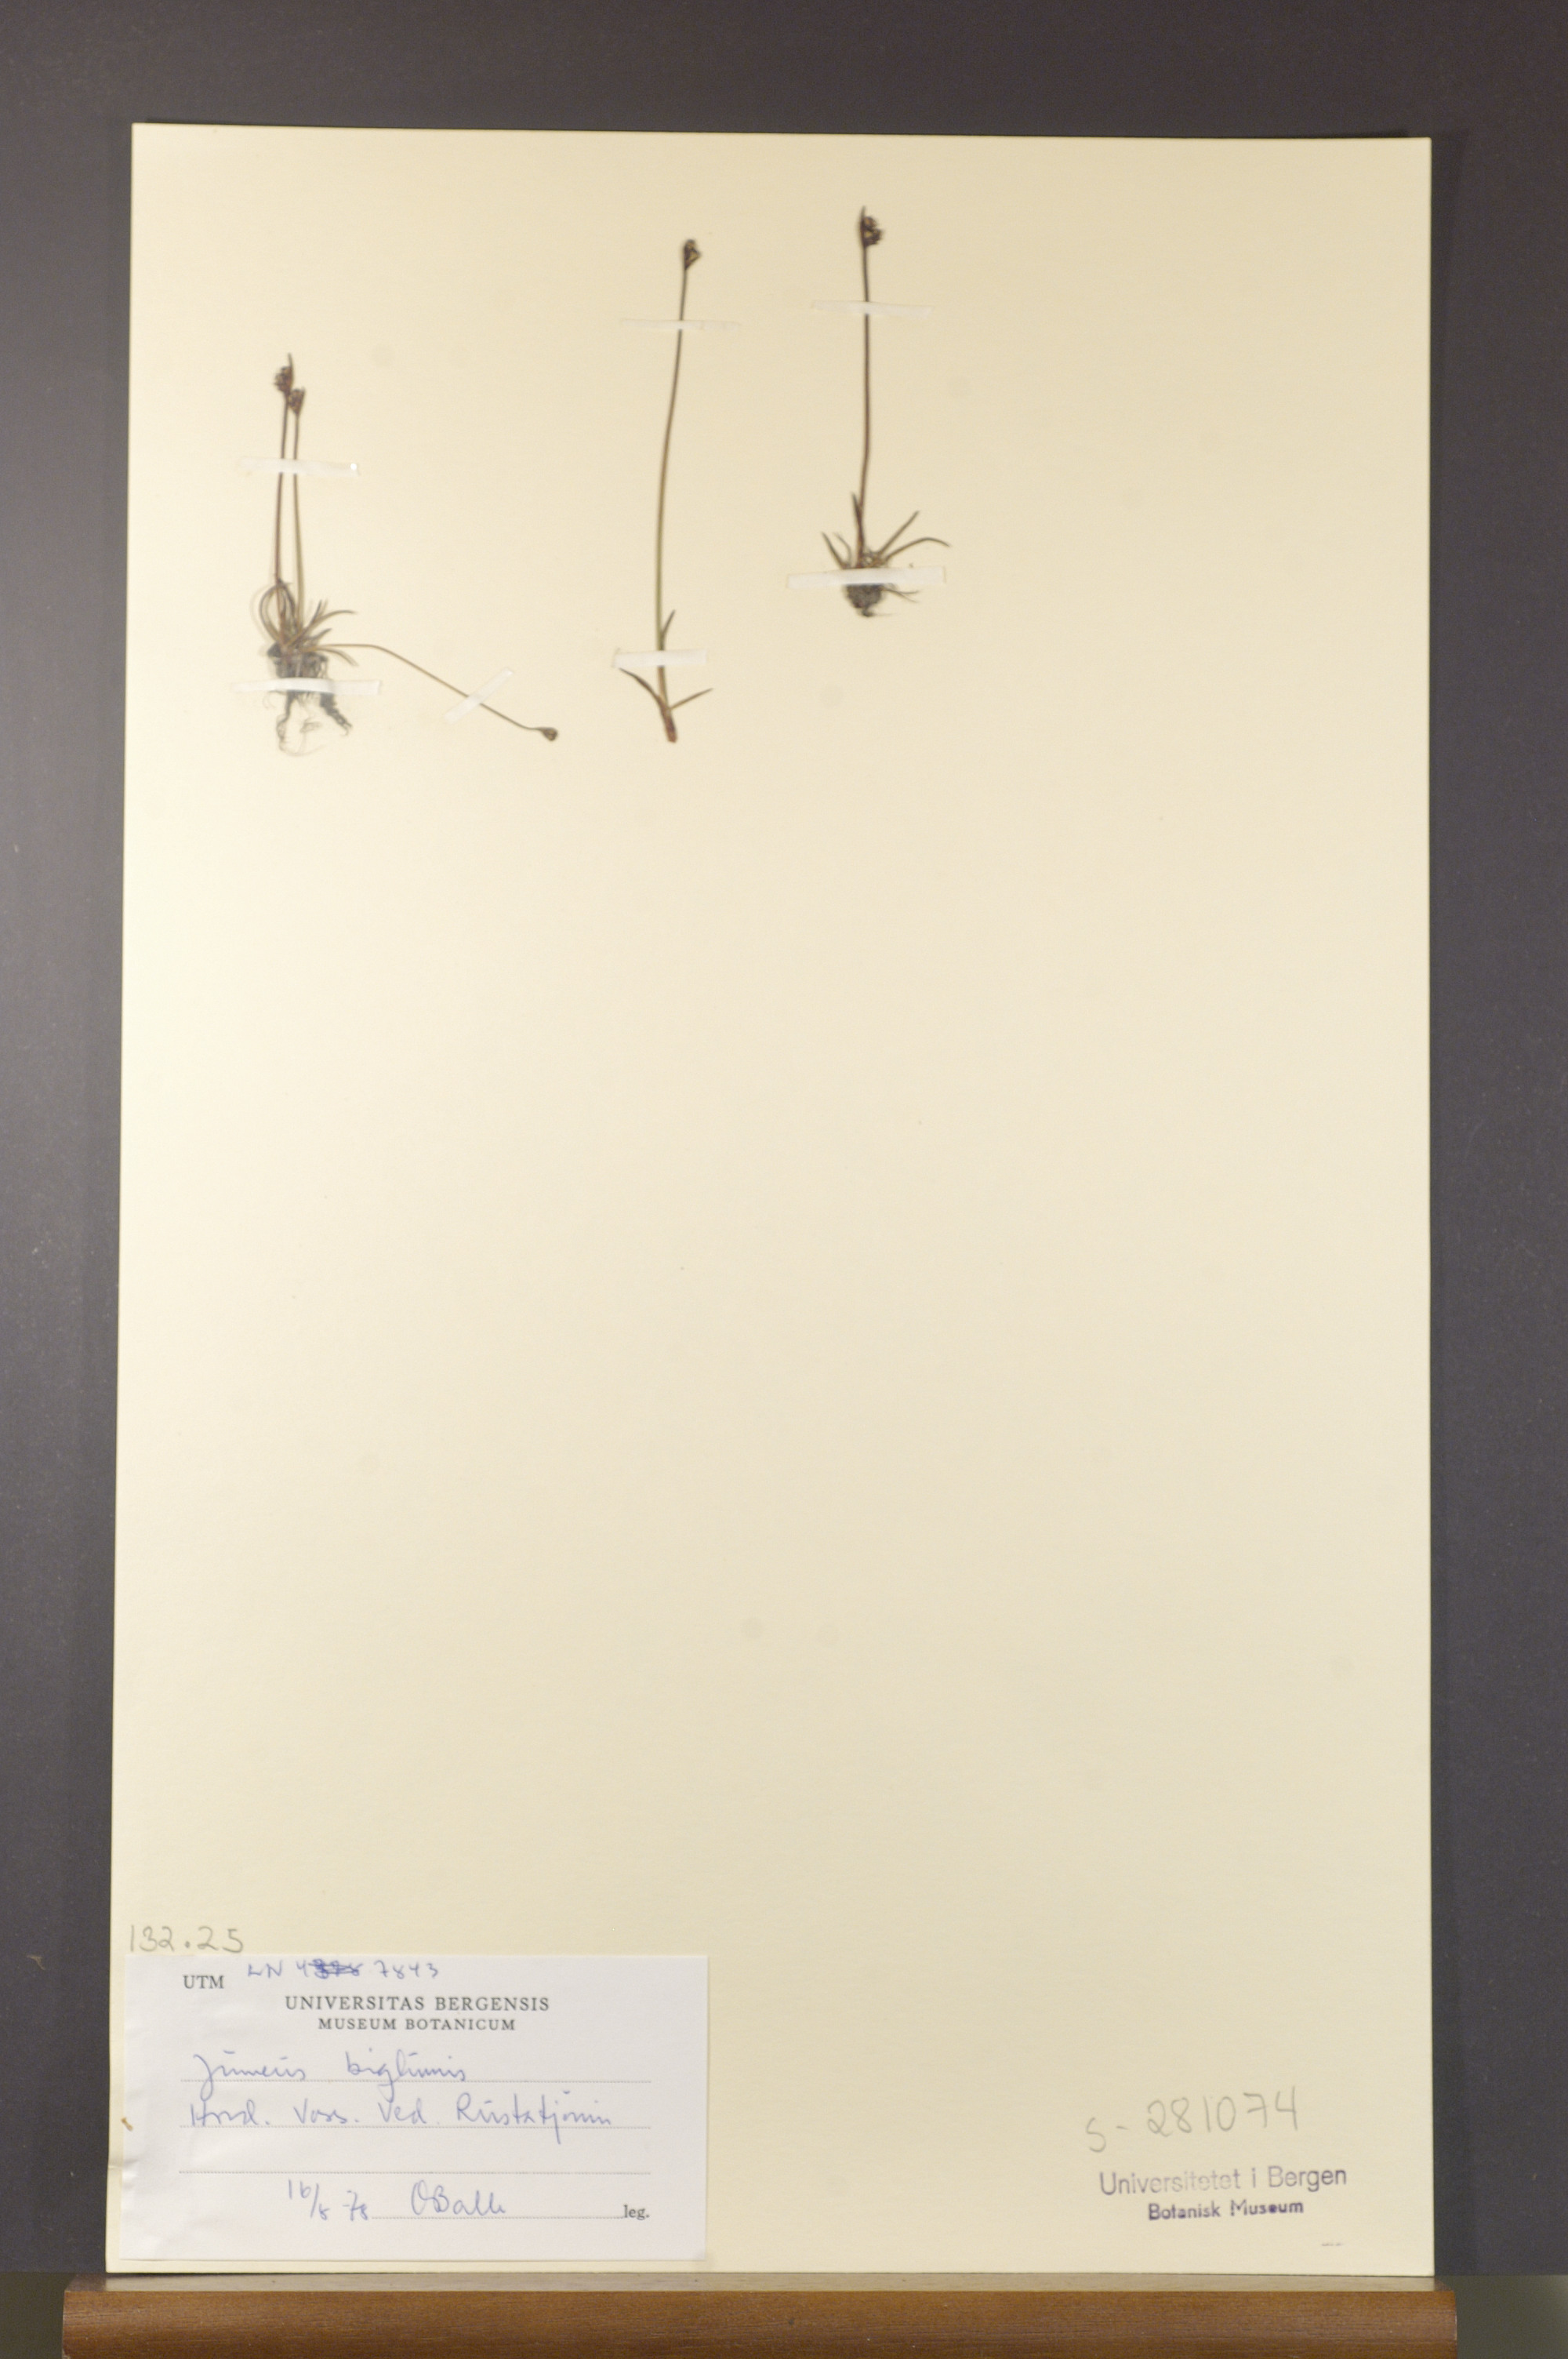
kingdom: Plantae
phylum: Tracheophyta
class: Liliopsida
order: Poales
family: Juncaceae
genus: Juncus
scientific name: Juncus biglumis
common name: Two-flowered rush
